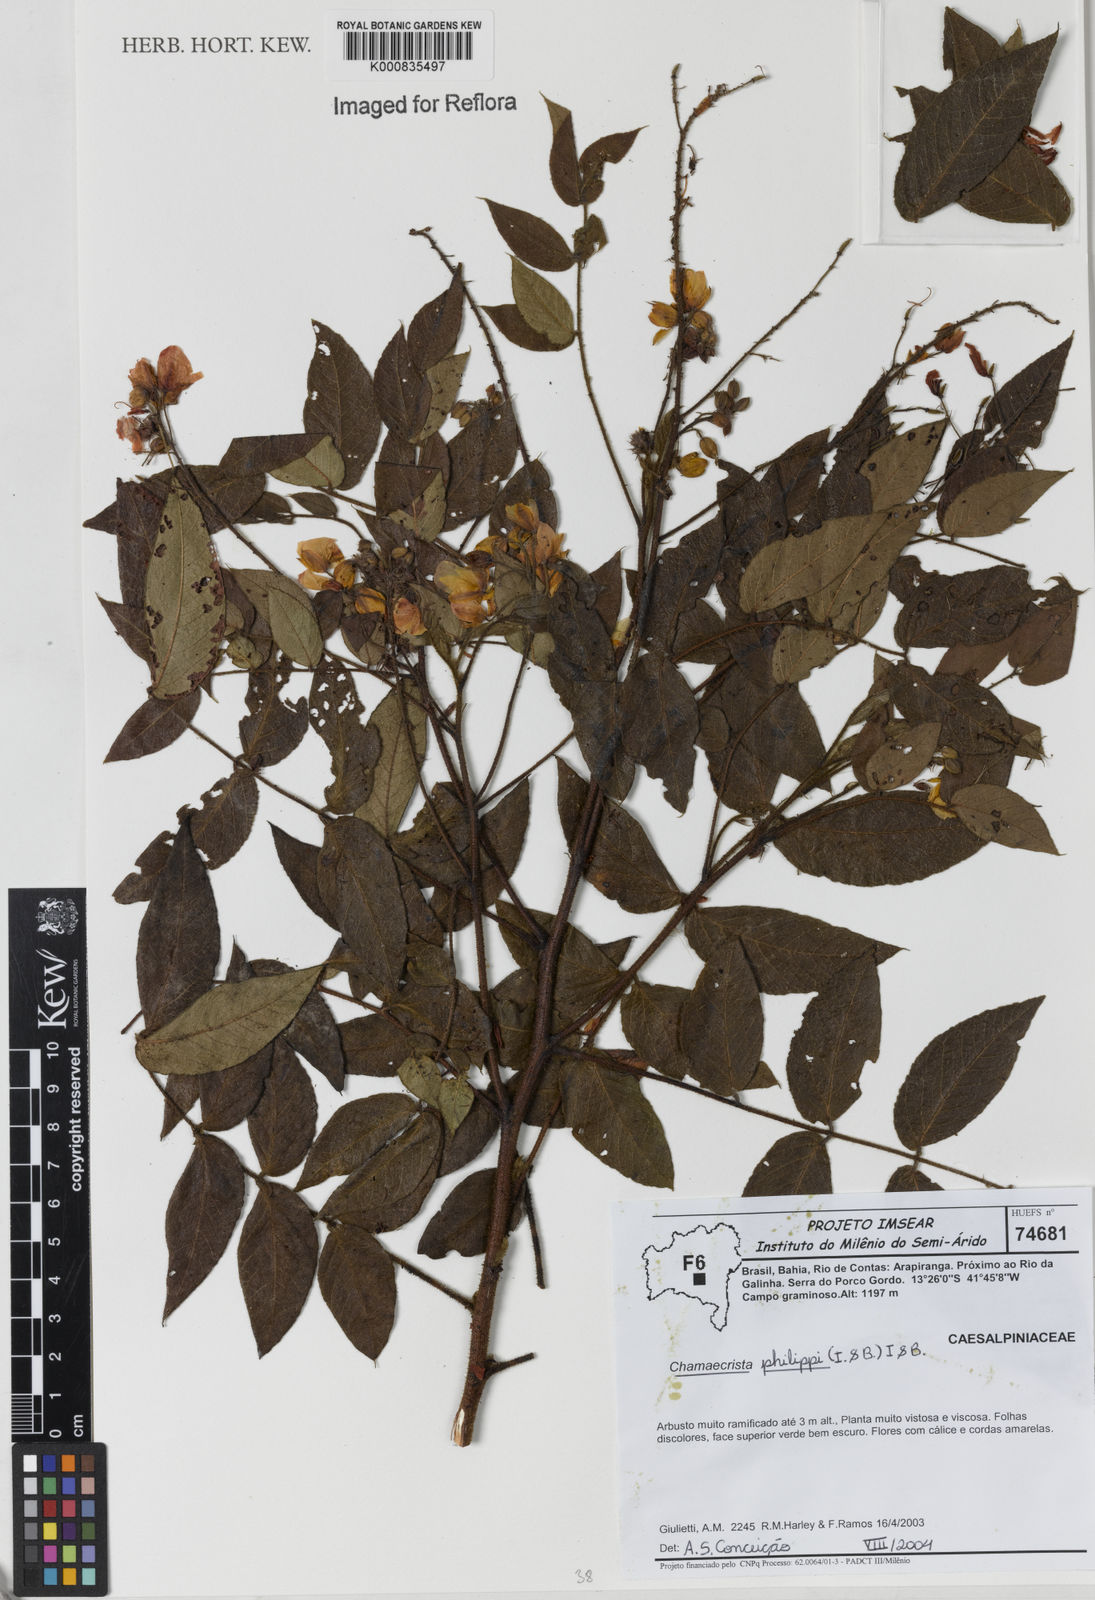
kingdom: Plantae
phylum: Tracheophyta
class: Magnoliopsida
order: Fabales
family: Fabaceae
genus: Chamaecrista
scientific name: Chamaecrista philippii
